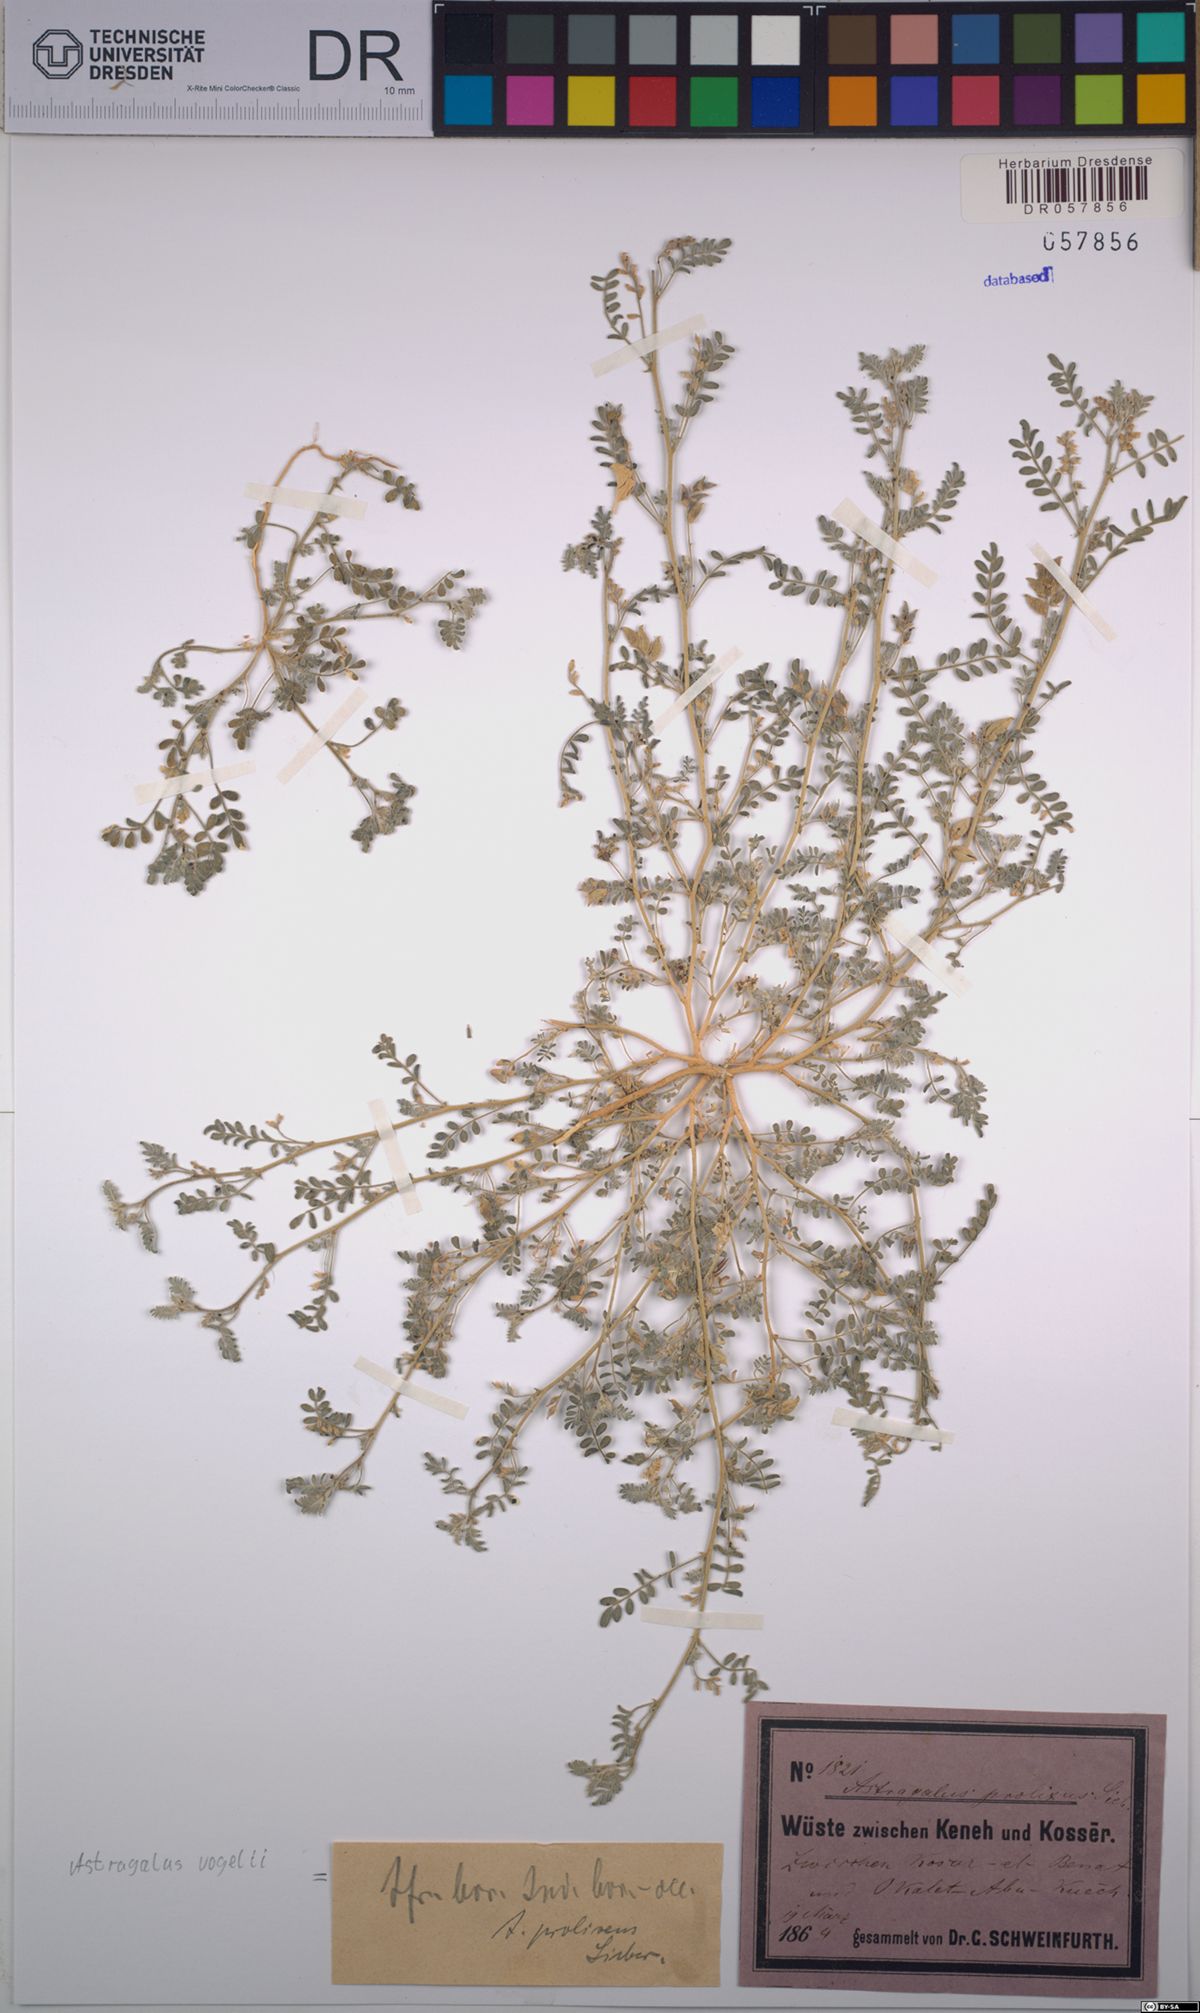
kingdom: Plantae
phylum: Tracheophyta
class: Magnoliopsida
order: Fabales
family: Fabaceae
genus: Astragalus
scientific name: Astragalus vogelii
